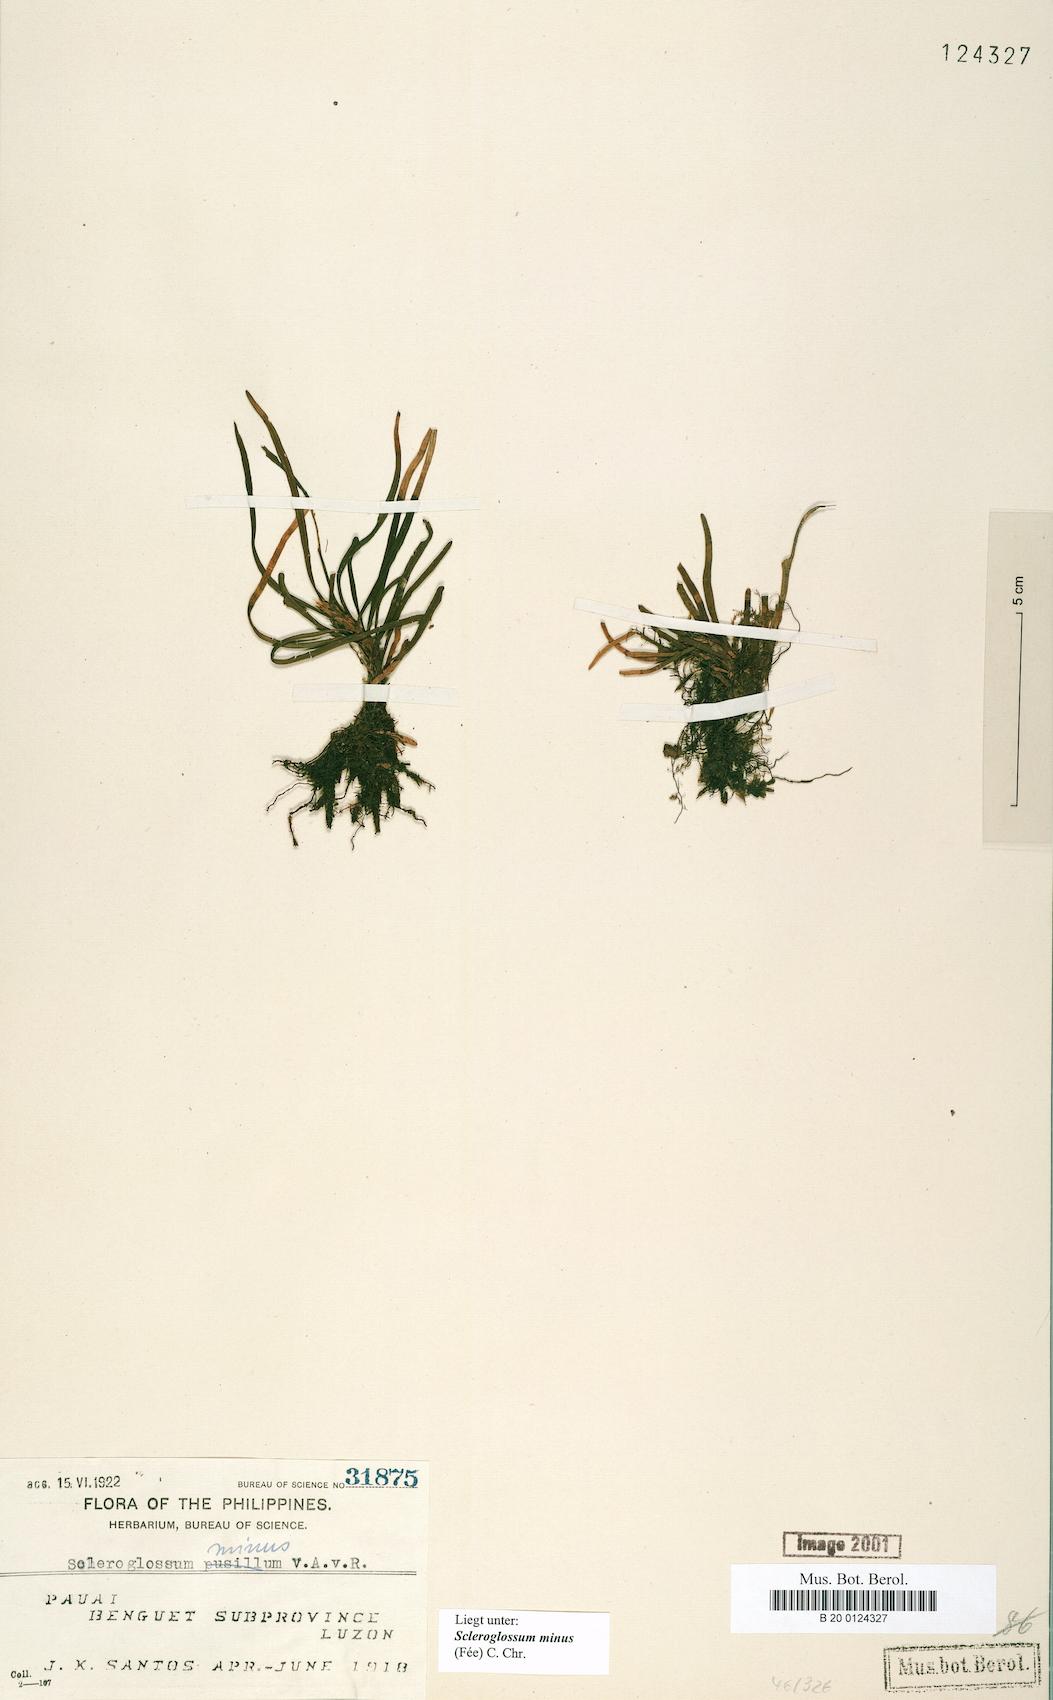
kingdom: Plantae
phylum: Tracheophyta
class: Polypodiopsida
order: Polypodiales
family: Polypodiaceae
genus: Scleroglossum
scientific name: Scleroglossum pusillum
